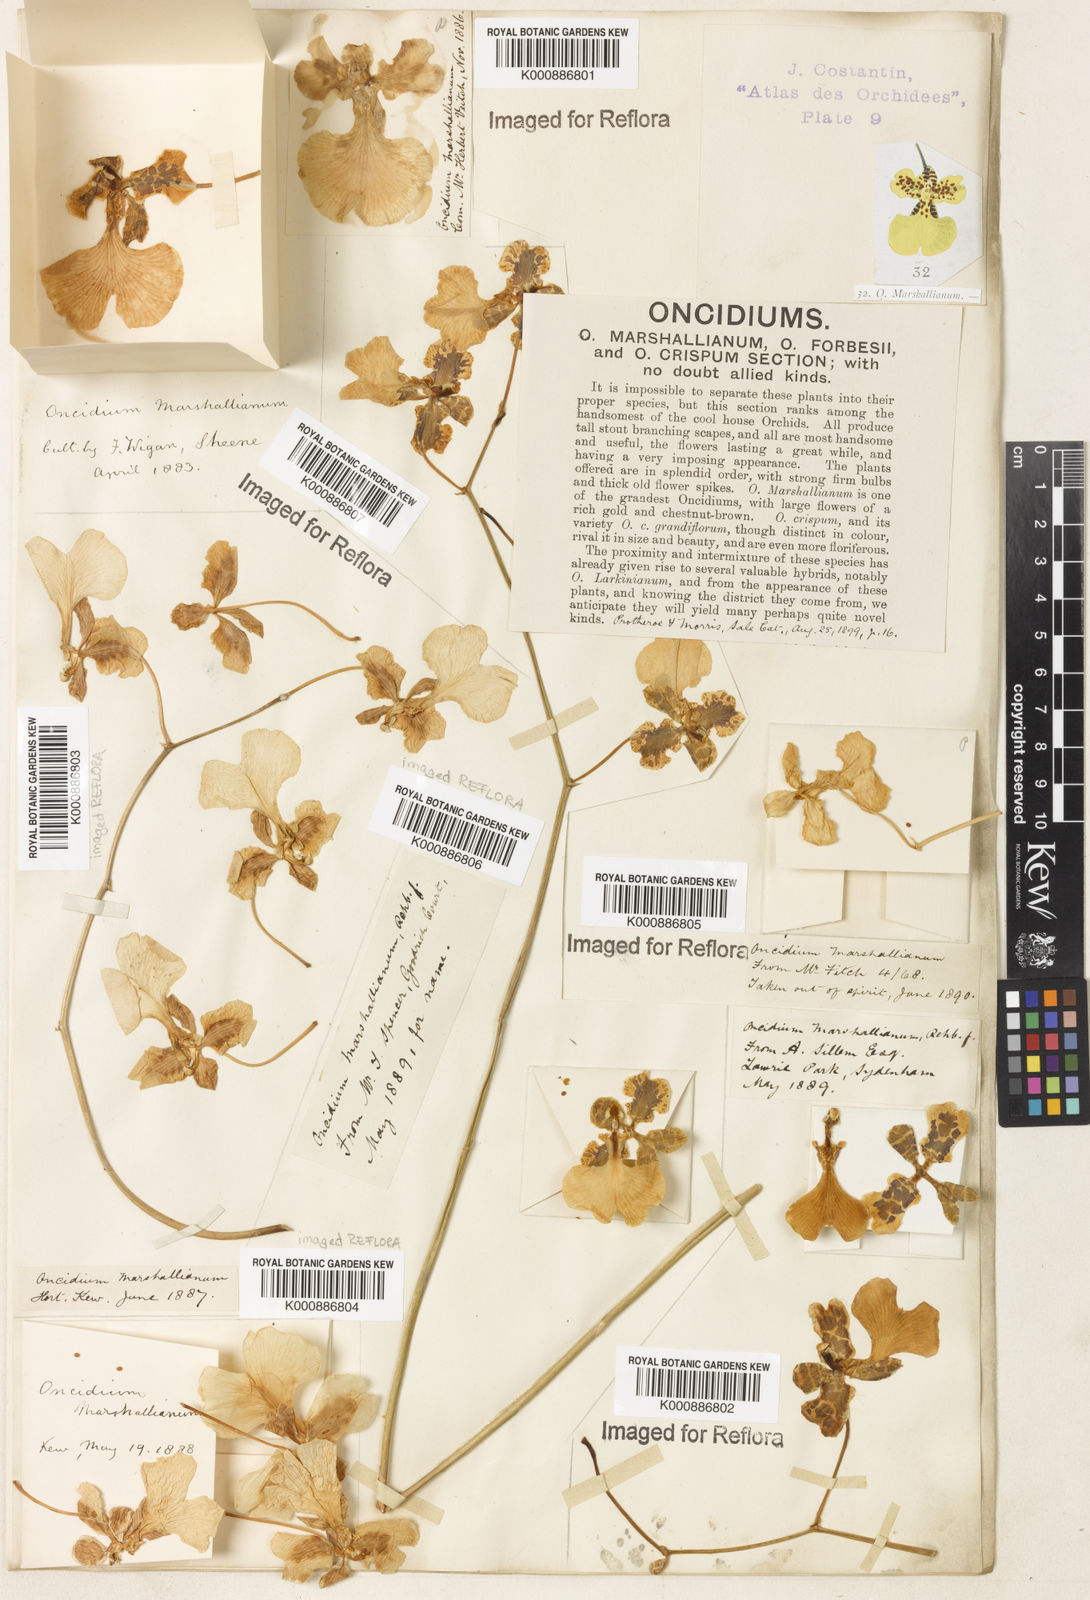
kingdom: Plantae
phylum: Tracheophyta
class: Liliopsida
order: Asparagales
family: Orchidaceae
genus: Gomesa
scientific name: Gomesa pectoralis
